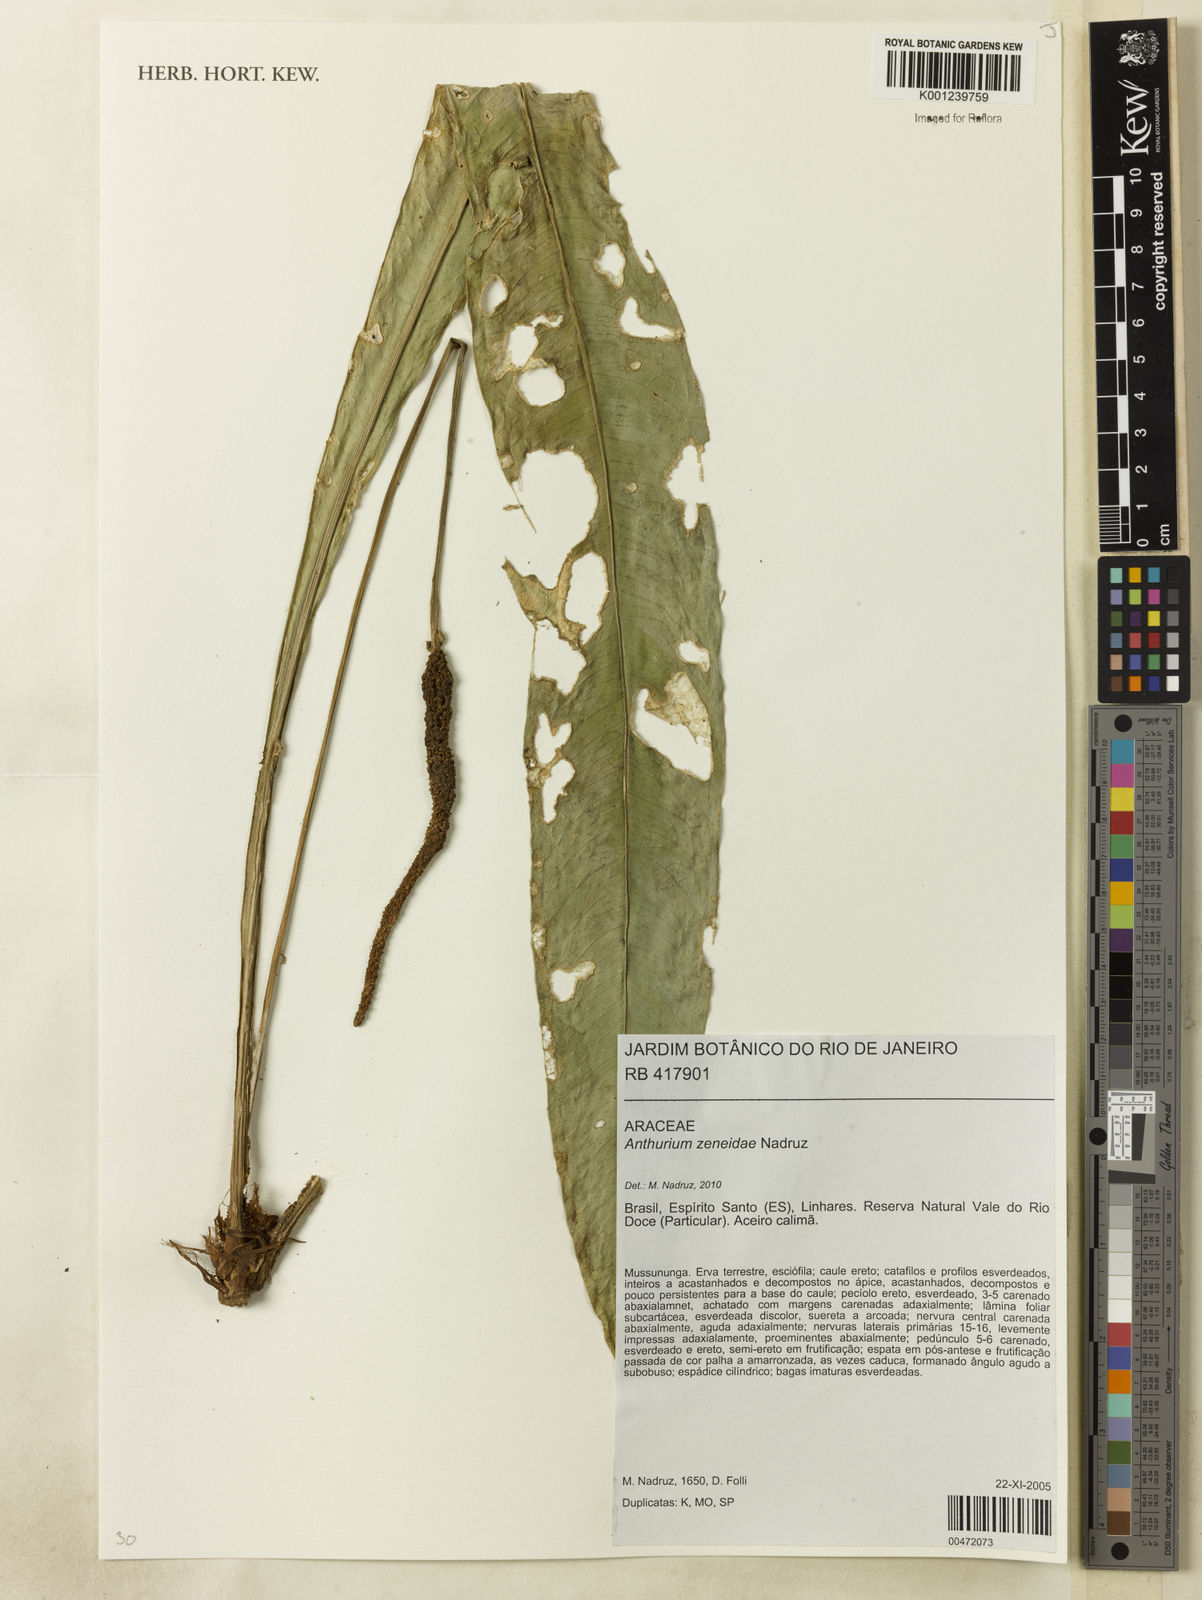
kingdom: Plantae
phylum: Tracheophyta
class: Liliopsida
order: Alismatales
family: Araceae
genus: Anthurium
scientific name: Anthurium zeneidae
